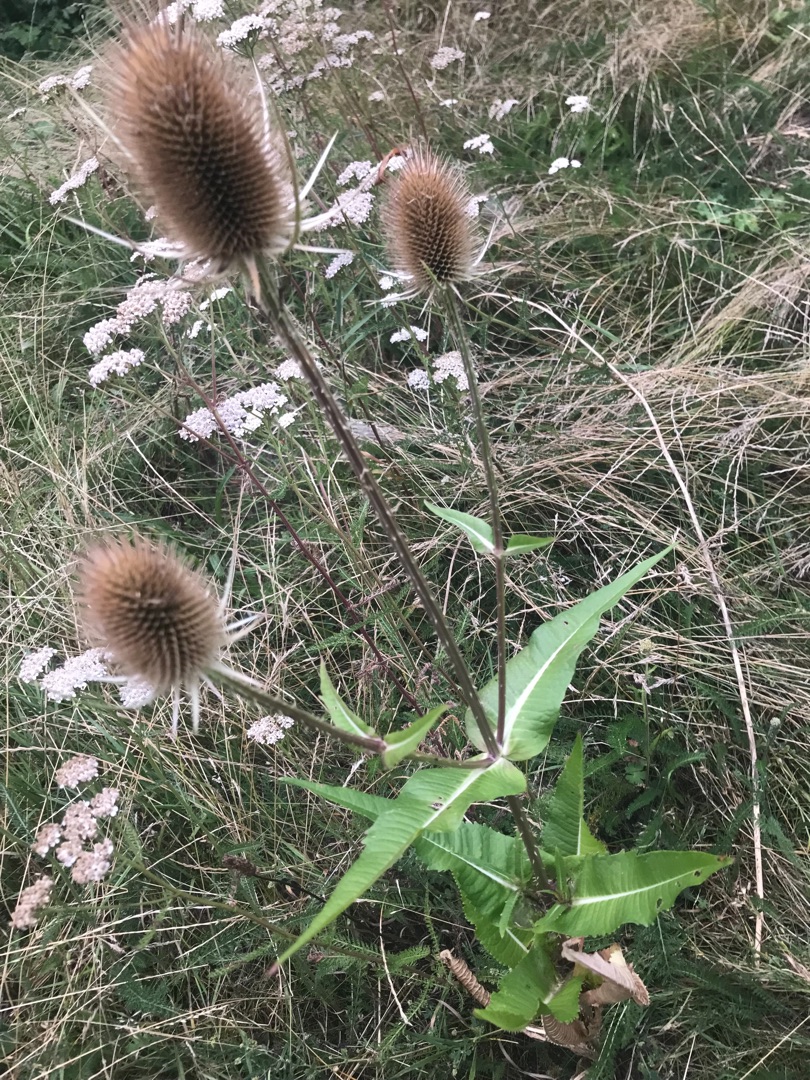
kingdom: Plantae
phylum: Tracheophyta
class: Magnoliopsida
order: Dipsacales
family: Caprifoliaceae
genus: Dipsacus
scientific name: Dipsacus fullonum
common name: Gærde-kartebolle
